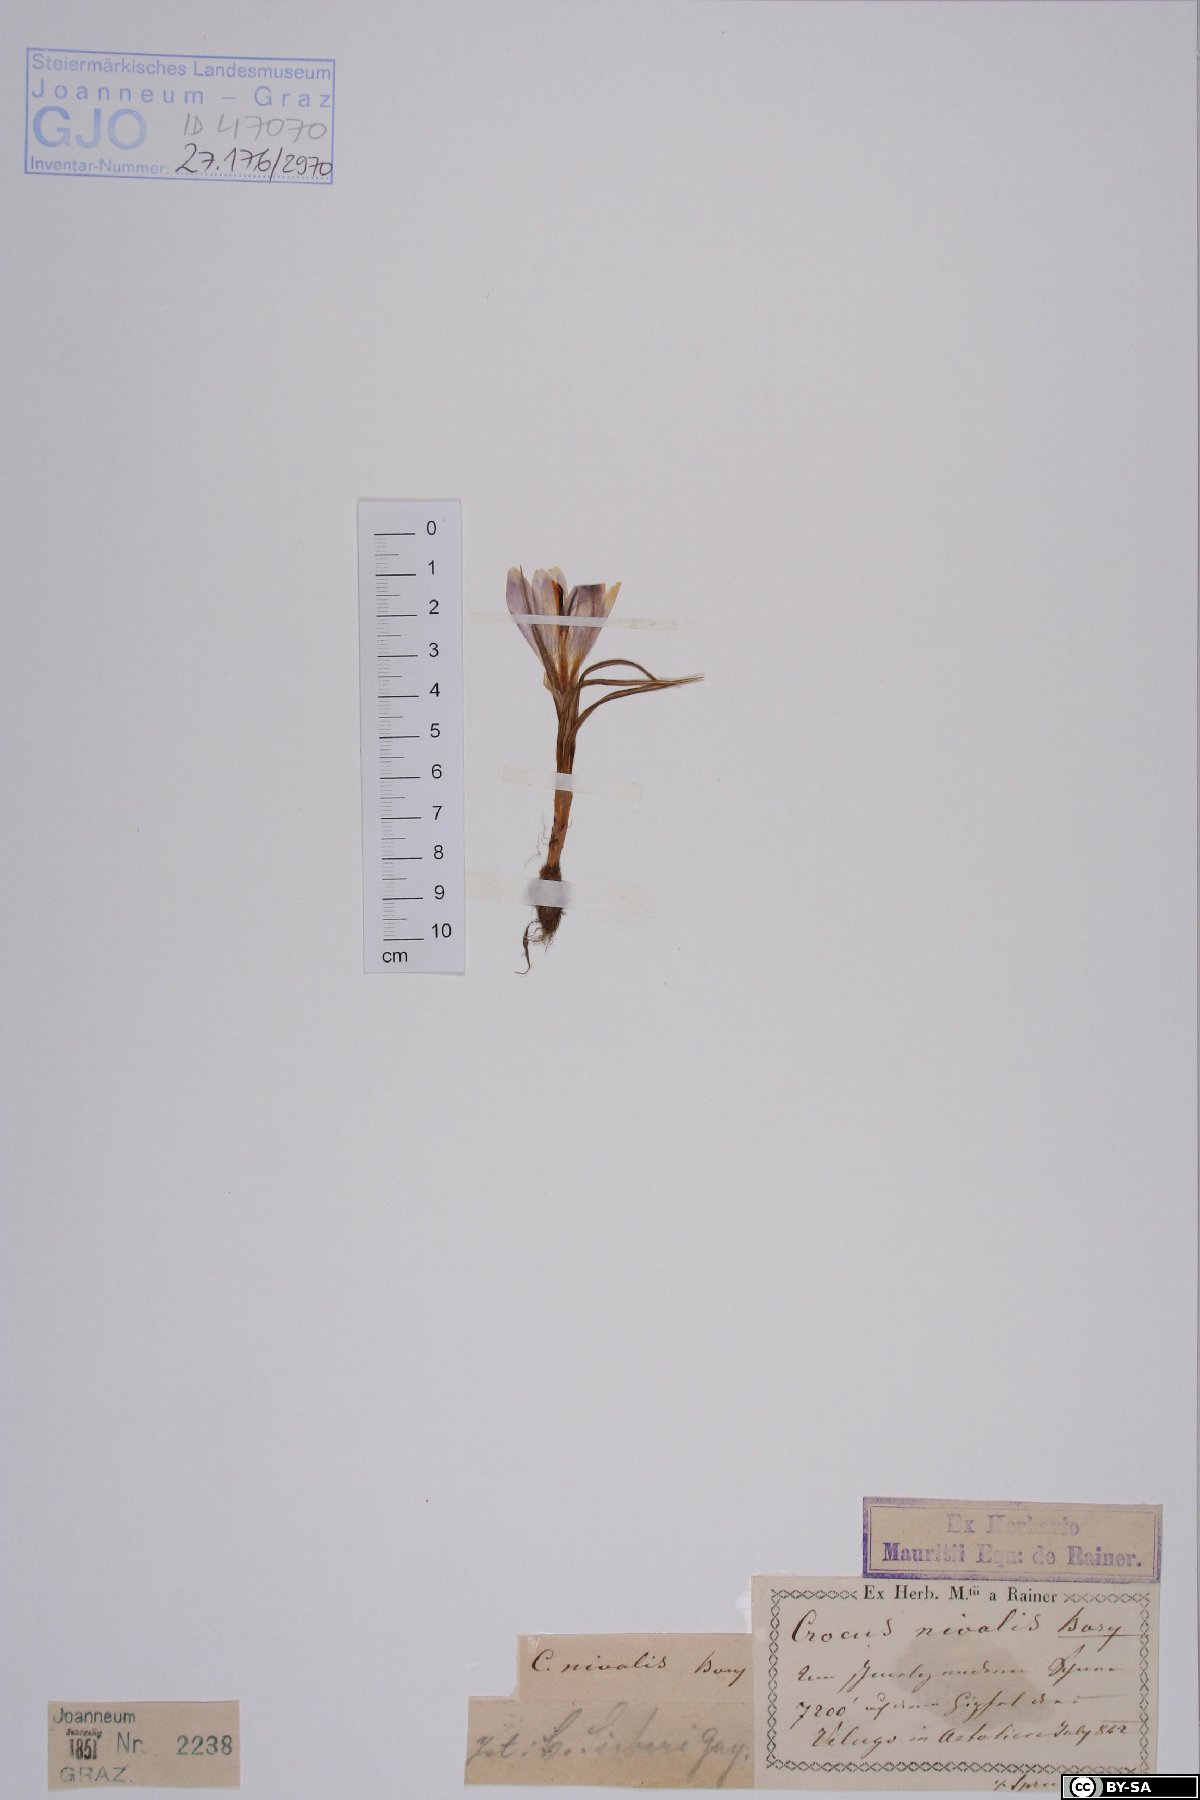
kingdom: Plantae
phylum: Tracheophyta
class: Liliopsida
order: Asparagales
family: Iridaceae
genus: Crocus
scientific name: Crocus nivalis
